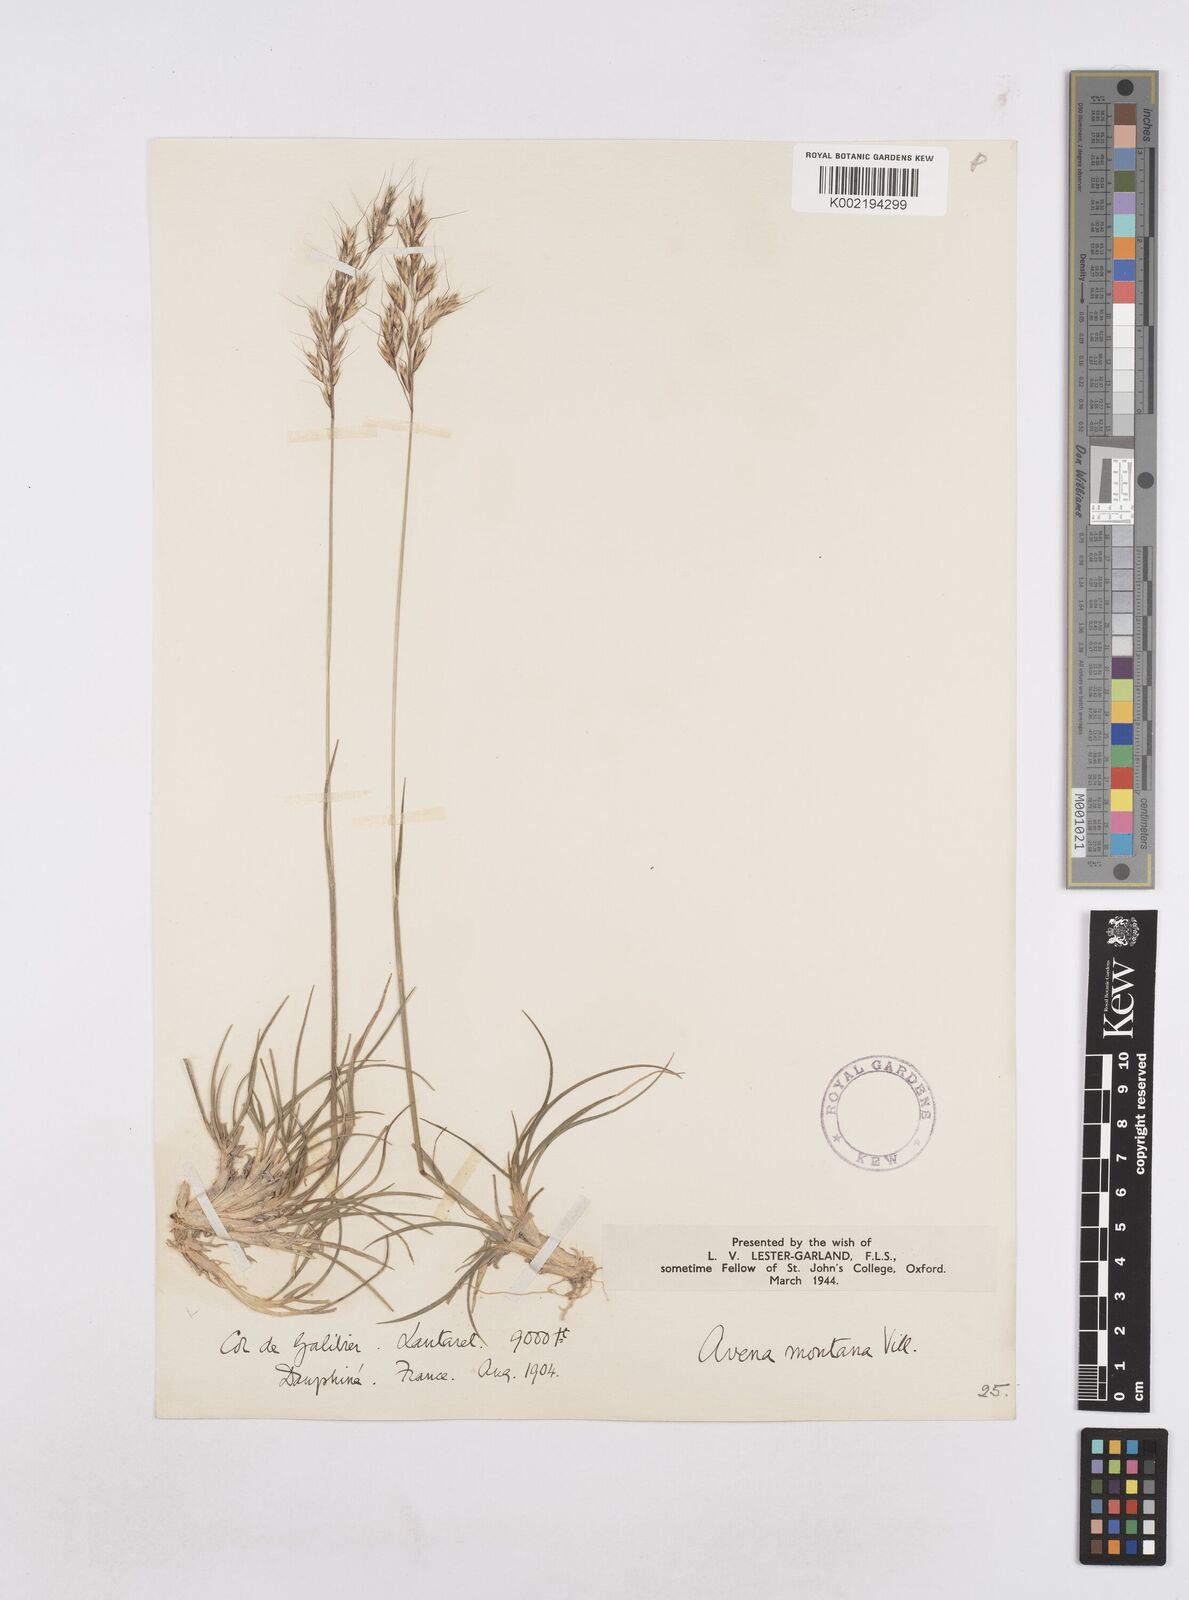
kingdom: Plantae
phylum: Tracheophyta
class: Liliopsida
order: Poales
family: Poaceae
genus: Helictotrichon
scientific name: Helictotrichon sedenense
